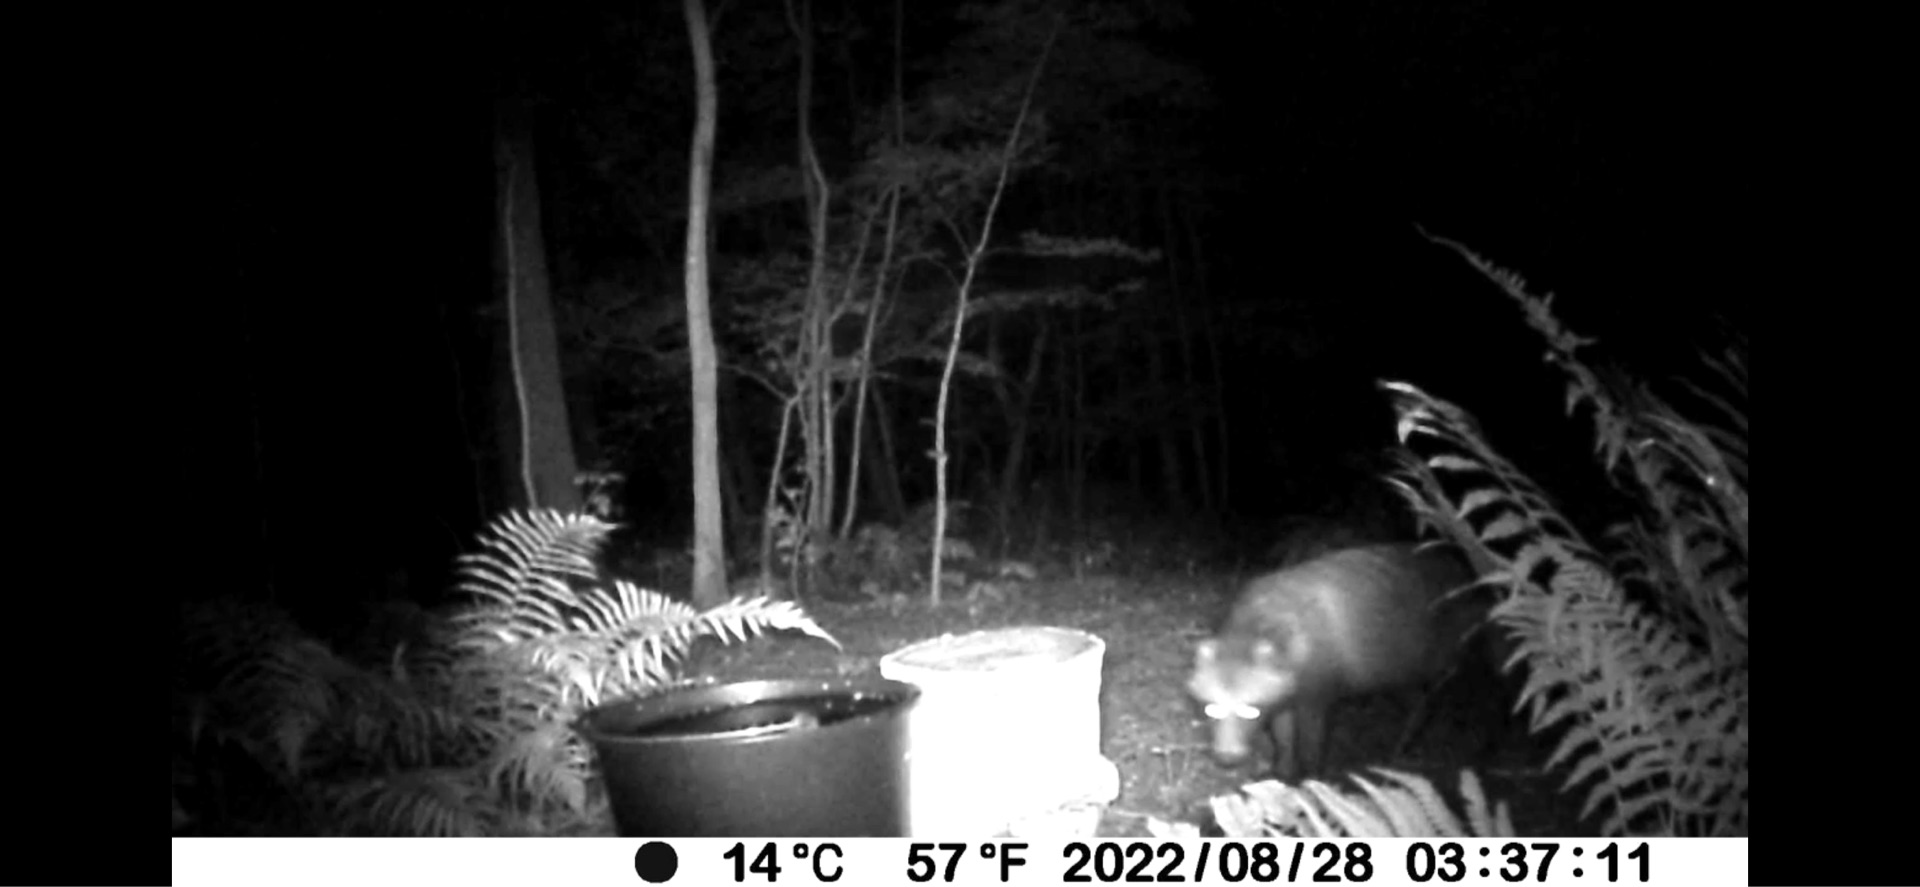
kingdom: Animalia
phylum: Chordata
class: Mammalia
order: Carnivora
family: Canidae
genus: Nyctereutes
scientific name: Nyctereutes procyonoides
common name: Mårhund
